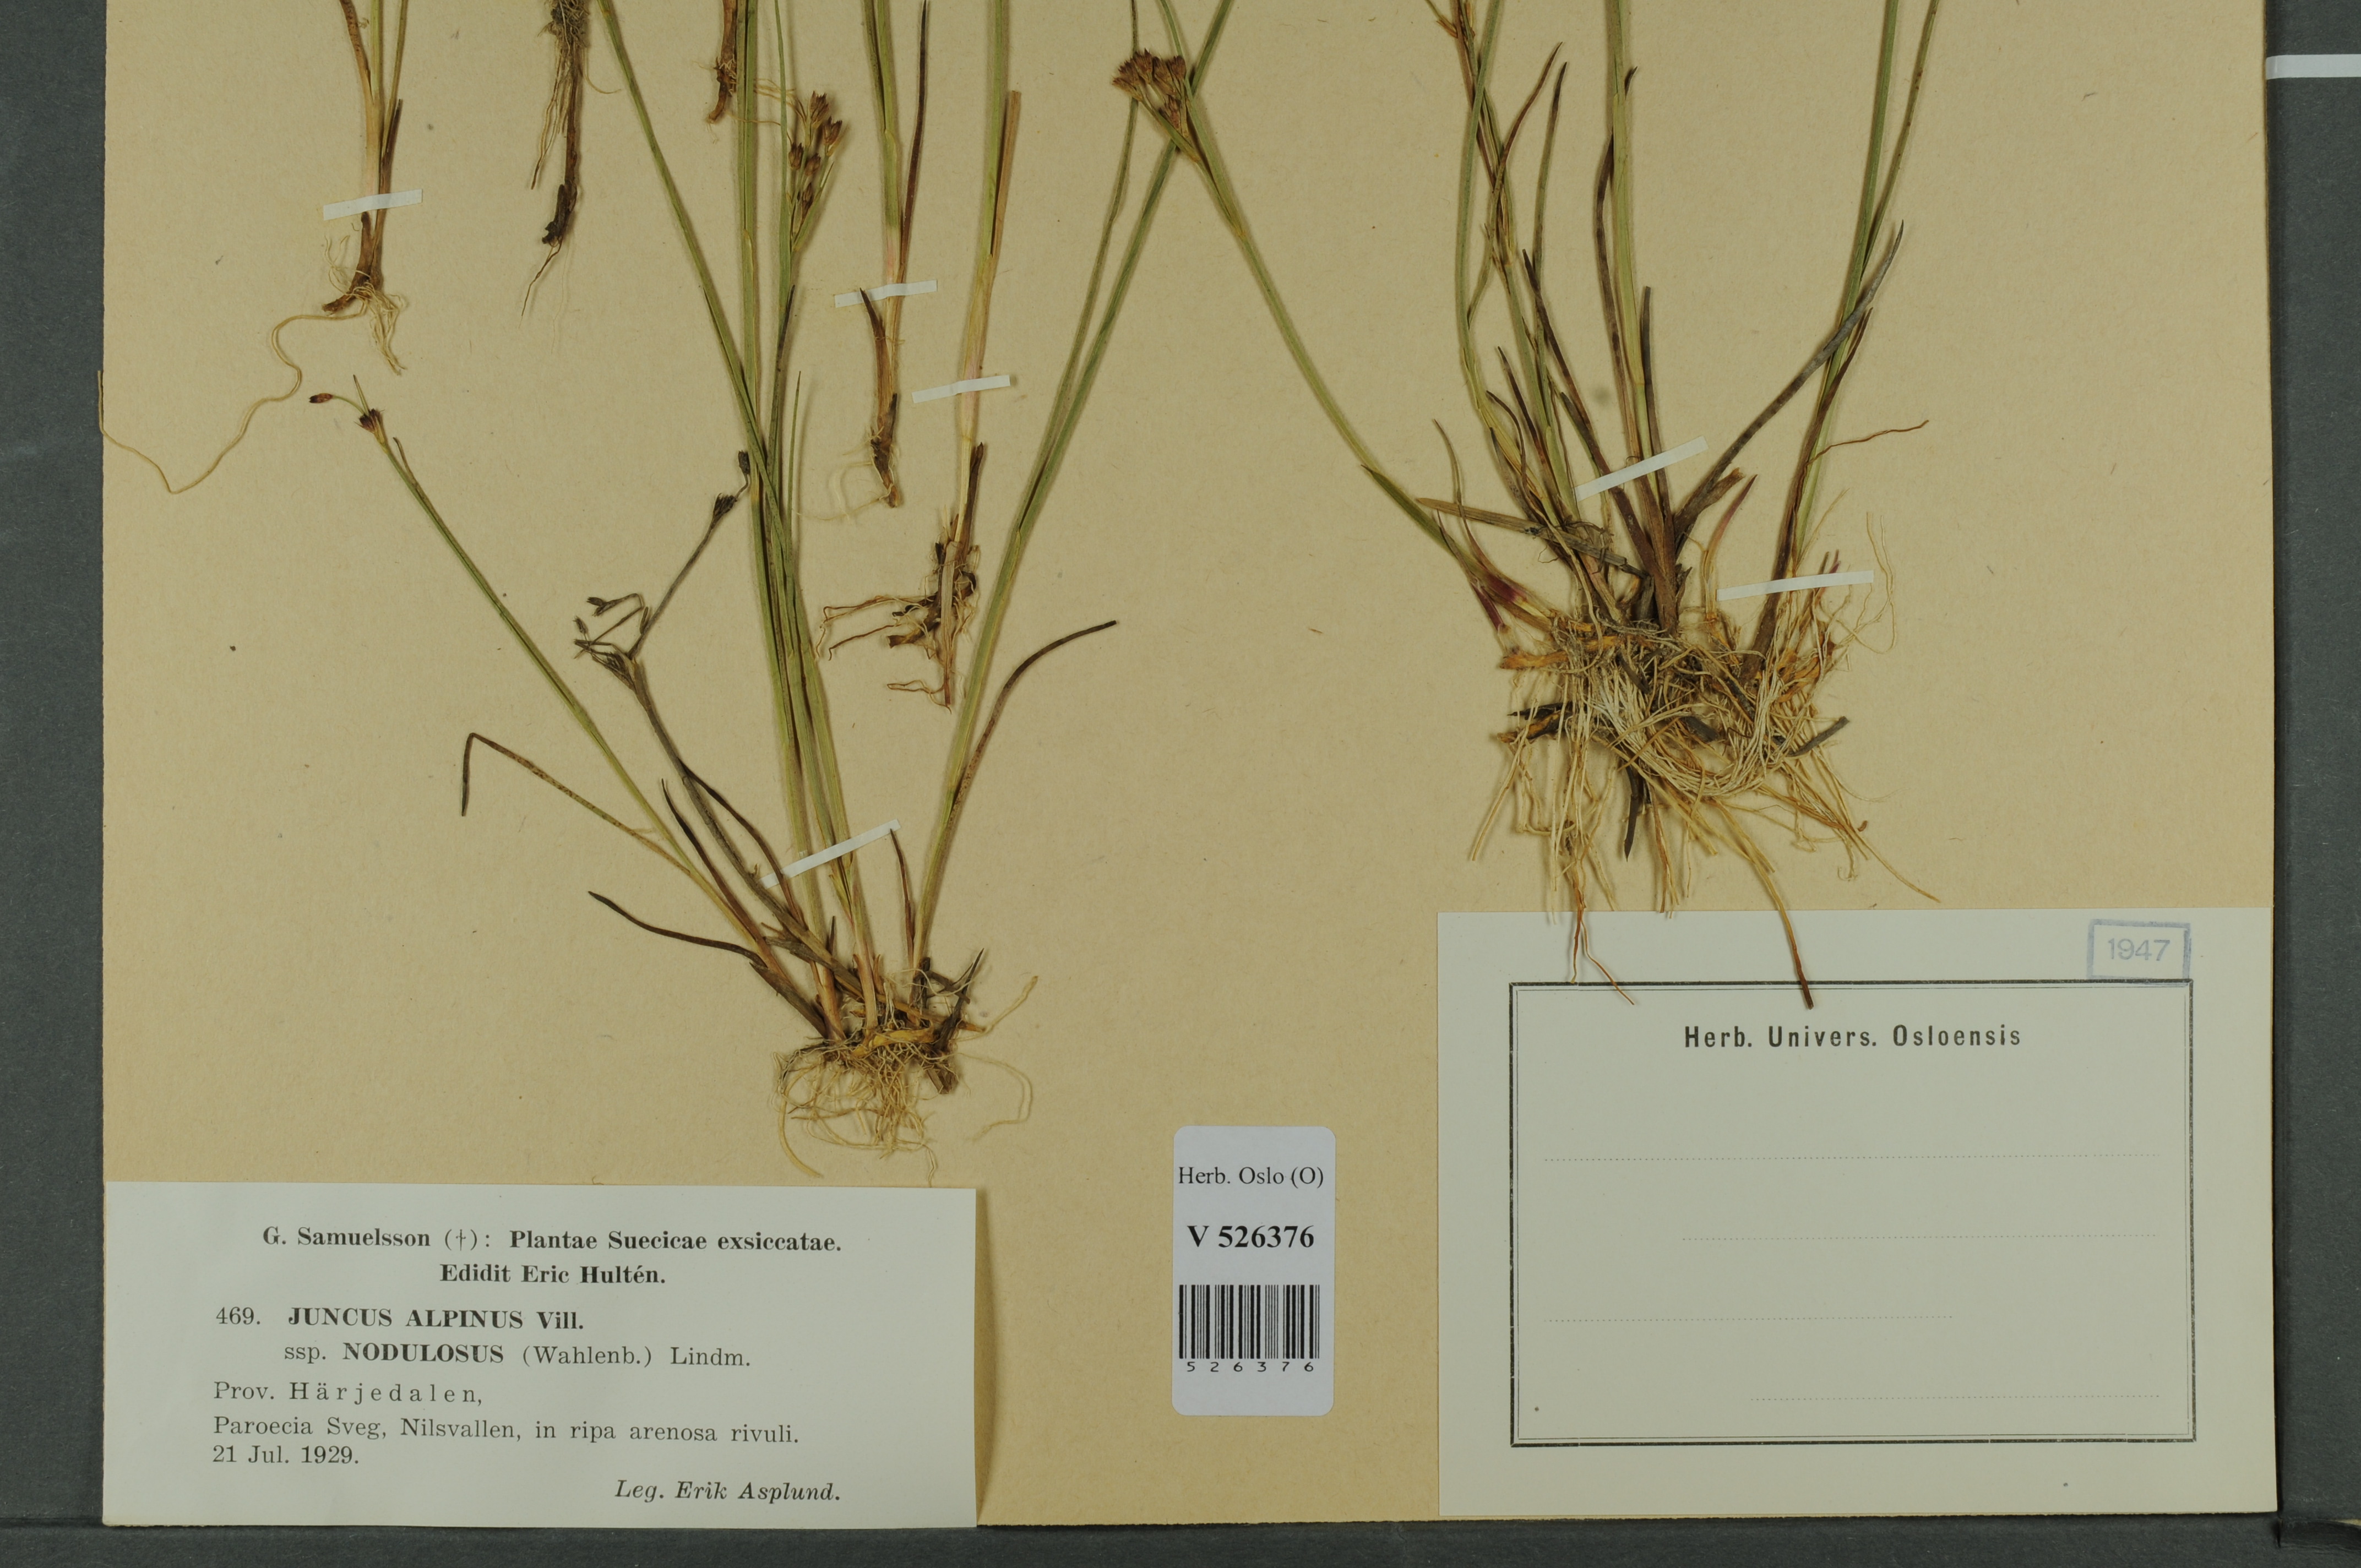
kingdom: Plantae
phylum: Tracheophyta
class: Liliopsida
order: Poales
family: Juncaceae
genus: Juncus
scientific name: Juncus alpinoarticulatus
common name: Alpine rush
